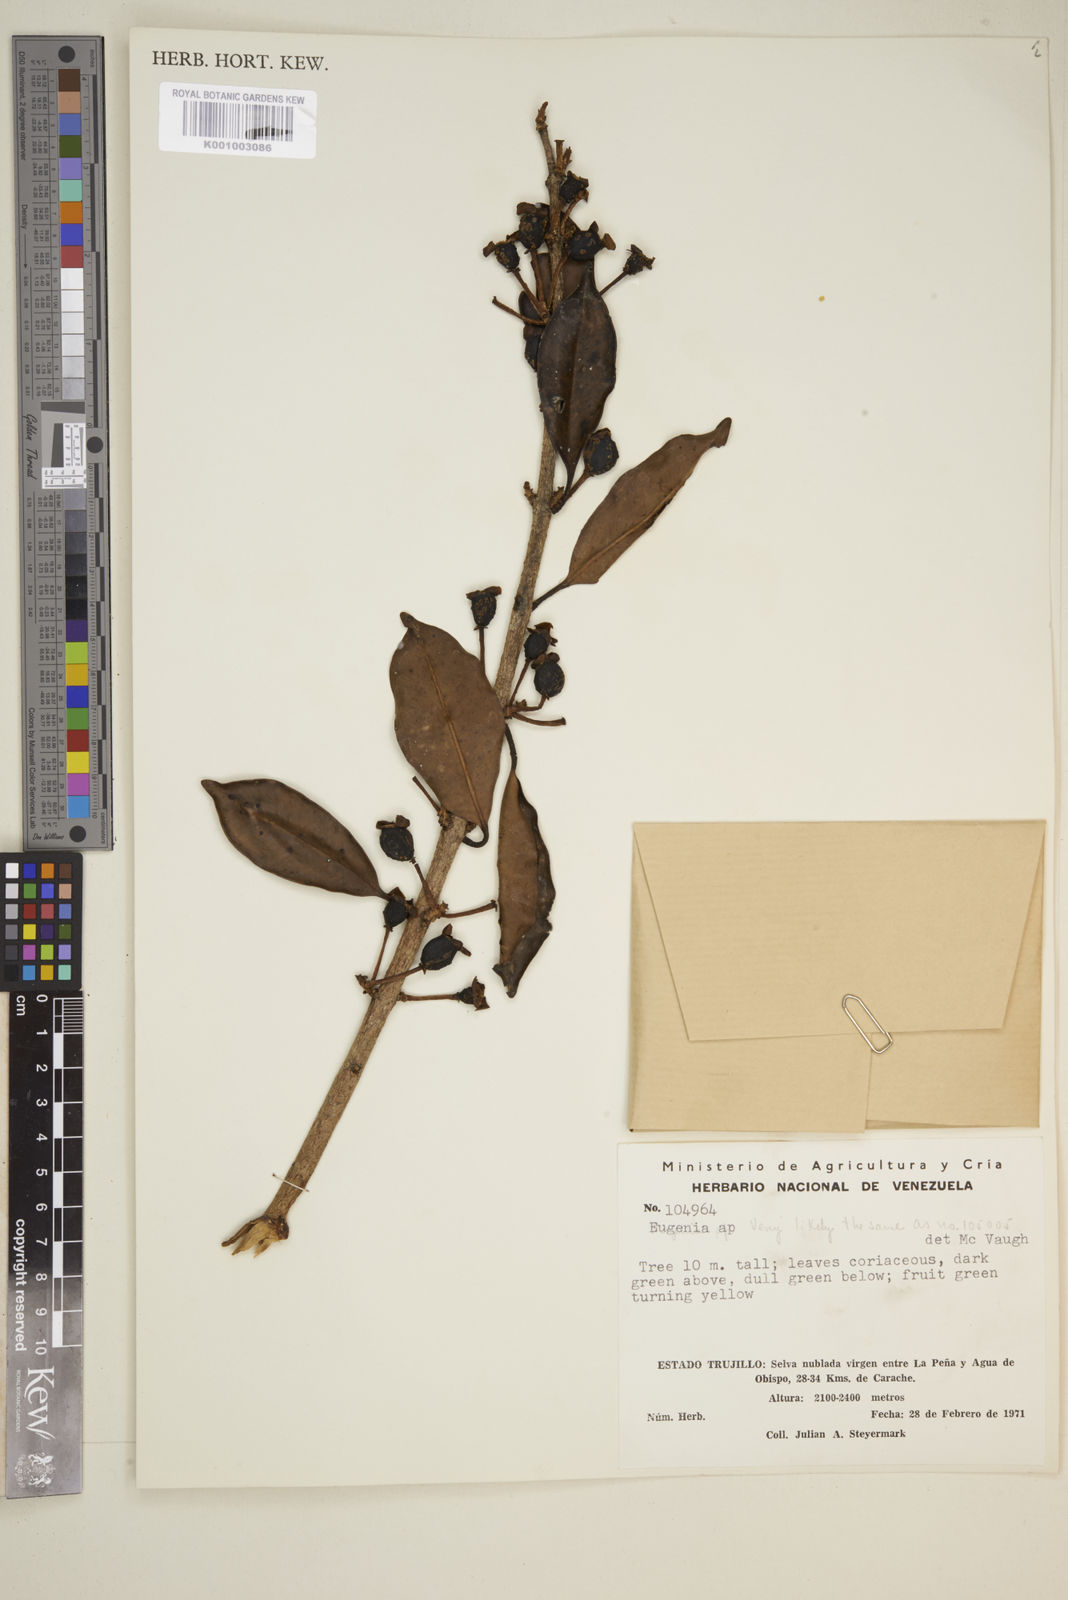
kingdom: Plantae
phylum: Tracheophyta
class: Magnoliopsida
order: Myrtales
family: Myrtaceae
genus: Eugenia
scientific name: Eugenia
